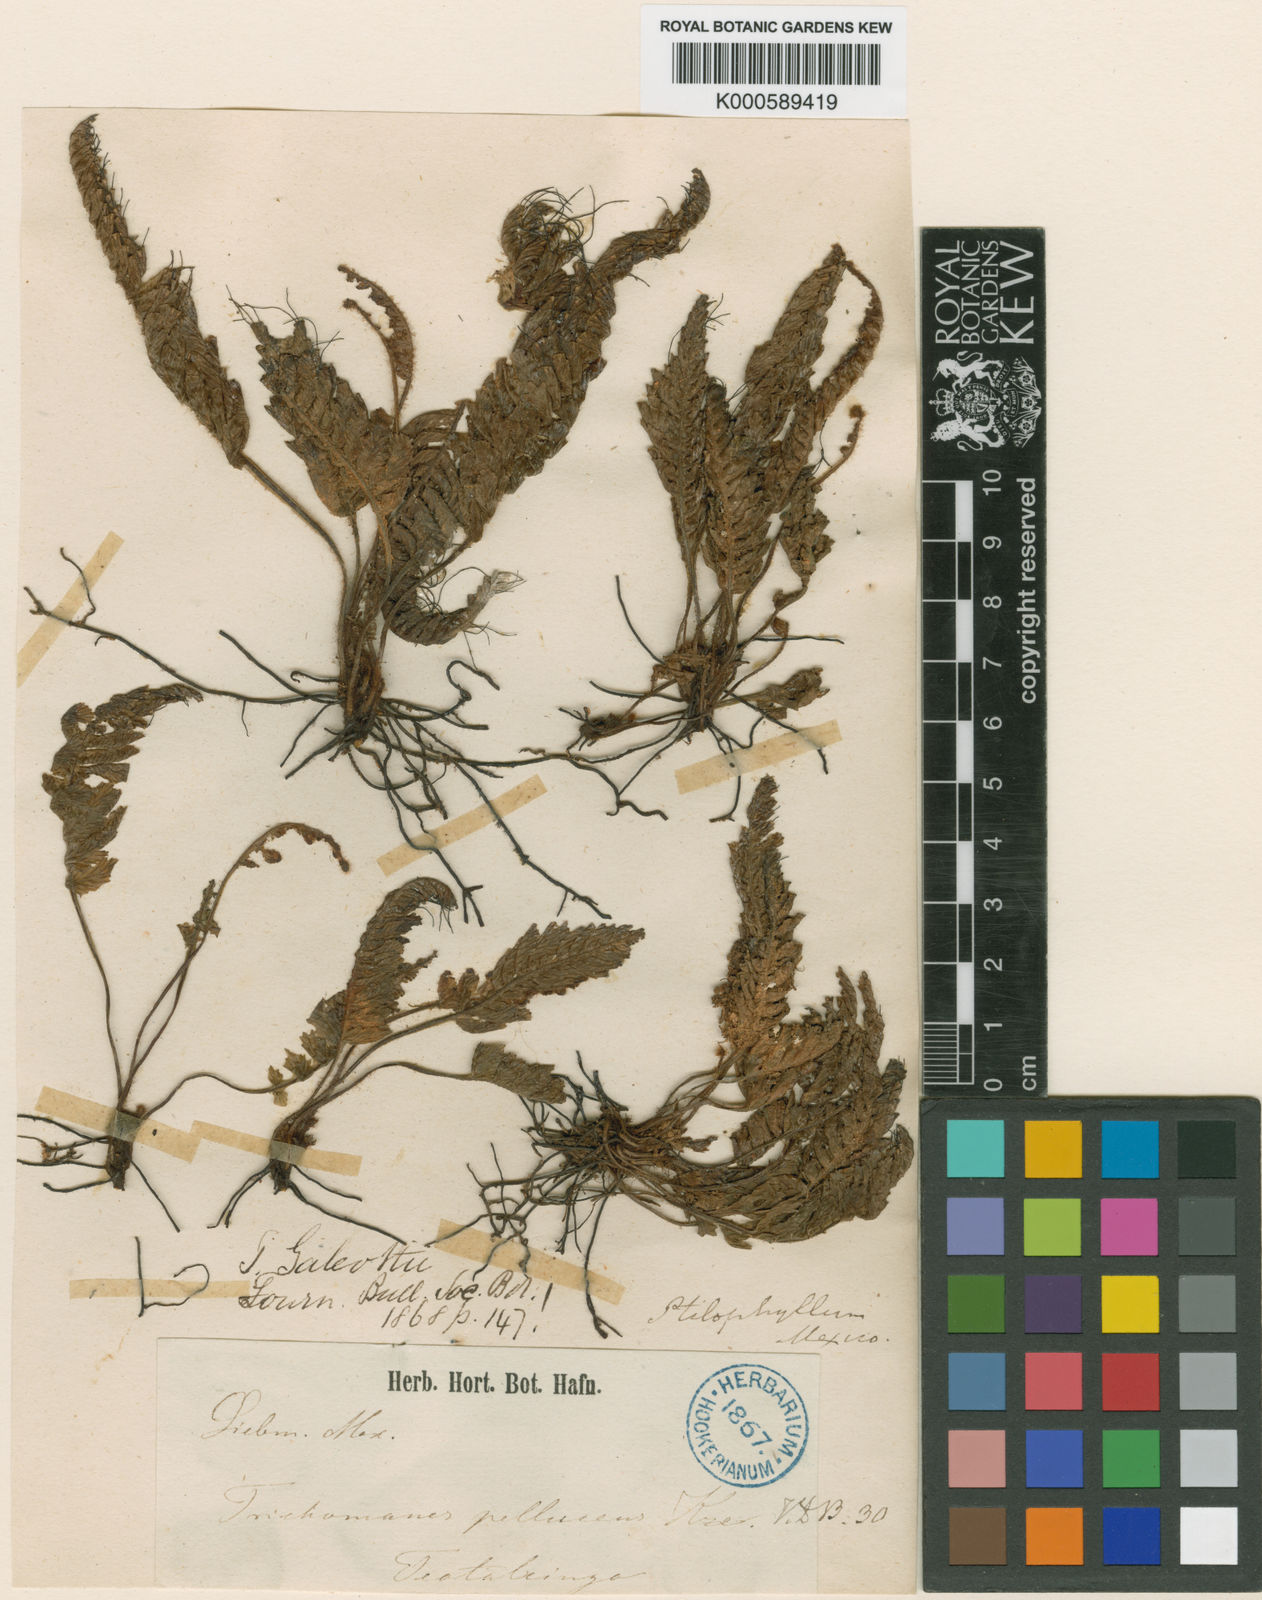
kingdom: Plantae
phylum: Tracheophyta
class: Polypodiopsida
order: Hymenophyllales
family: Hymenophyllaceae
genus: Trichomanes
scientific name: Trichomanes galeottii
